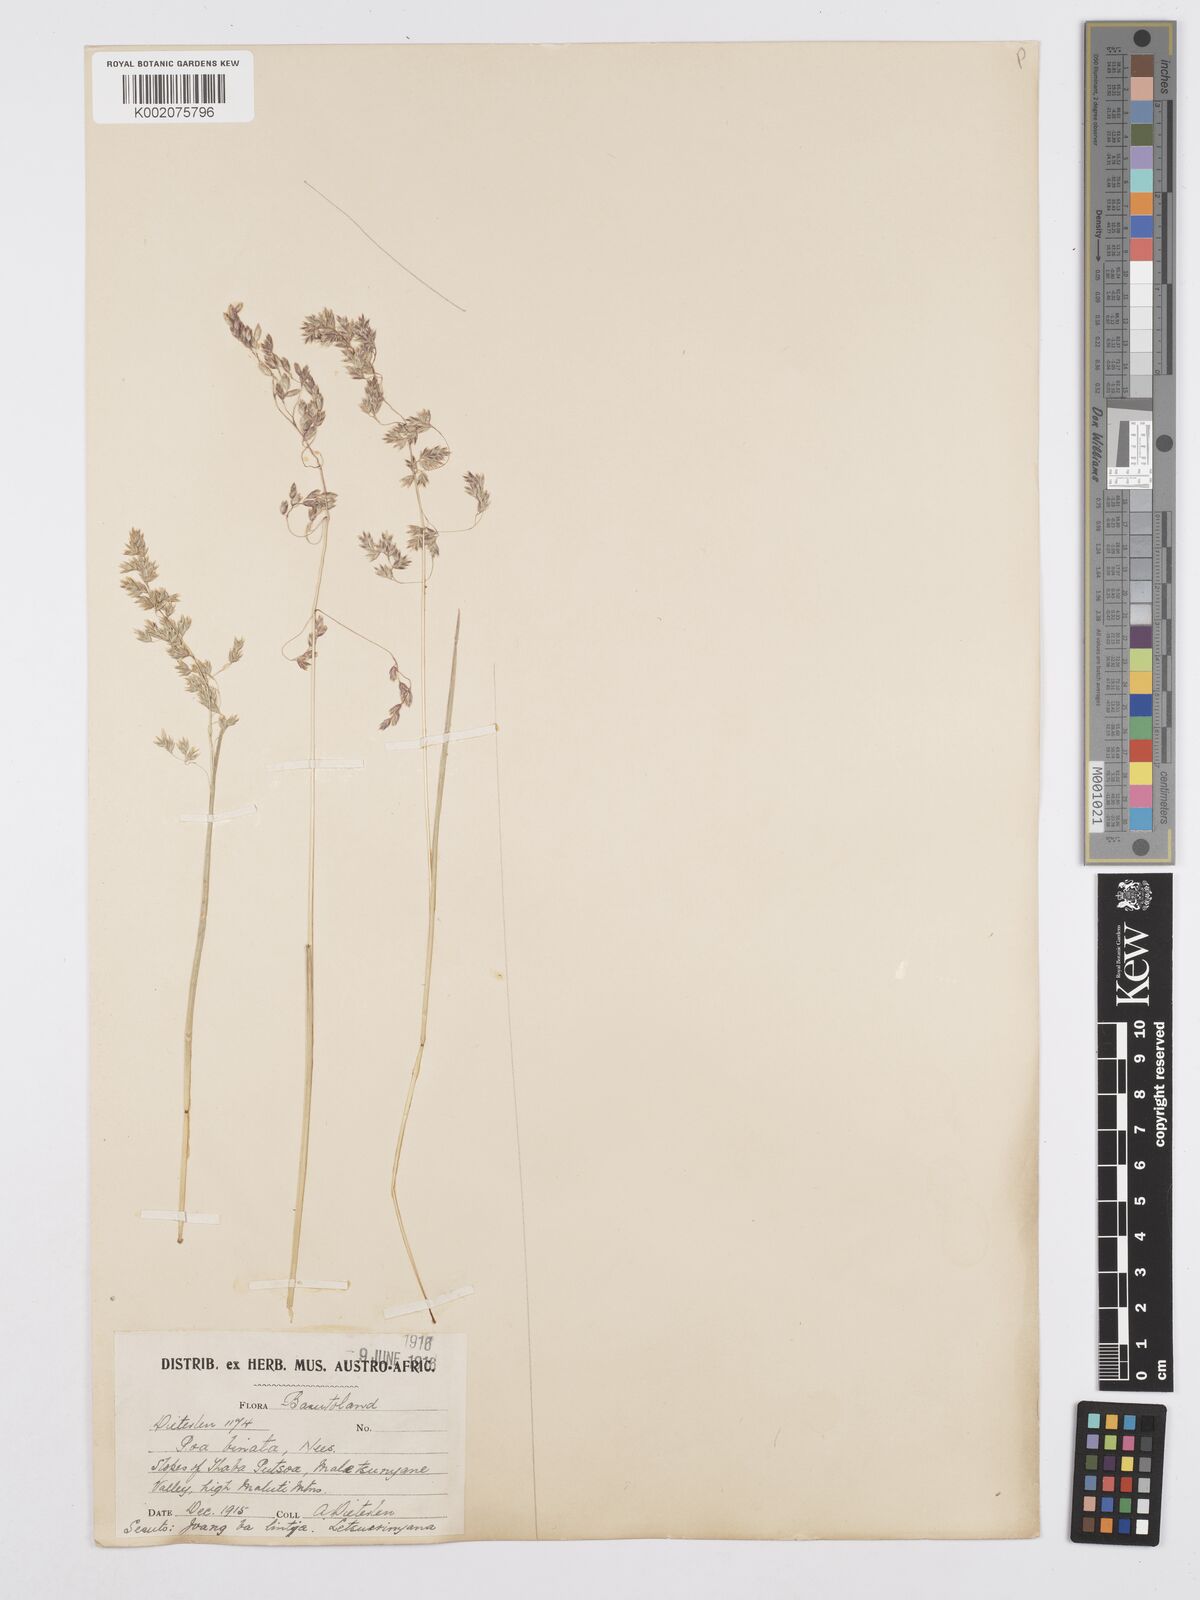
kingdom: Plantae
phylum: Tracheophyta
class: Liliopsida
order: Poales
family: Poaceae
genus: Poa
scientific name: Poa binata
